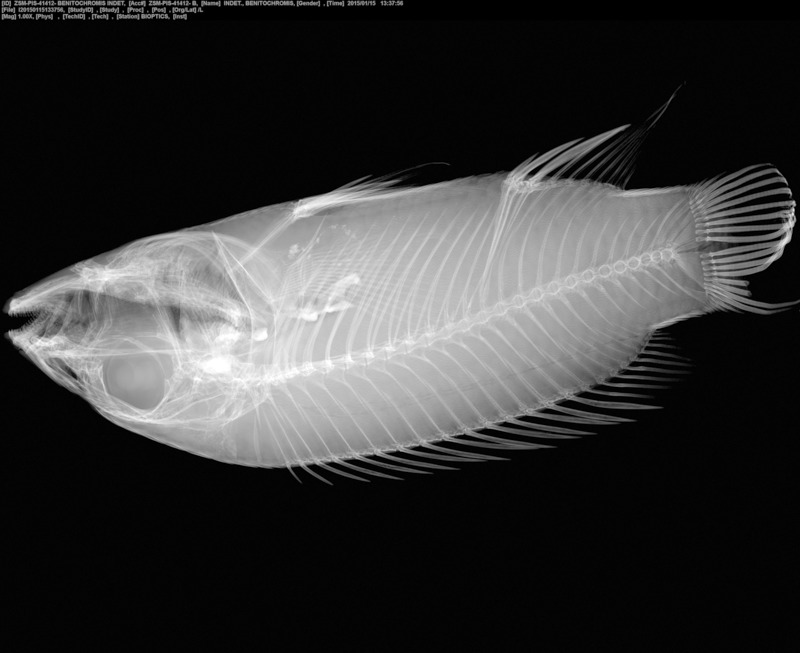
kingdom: Animalia
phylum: Chordata
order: Perciformes
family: Cichlidae
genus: Benitochromis
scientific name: Benitochromis
